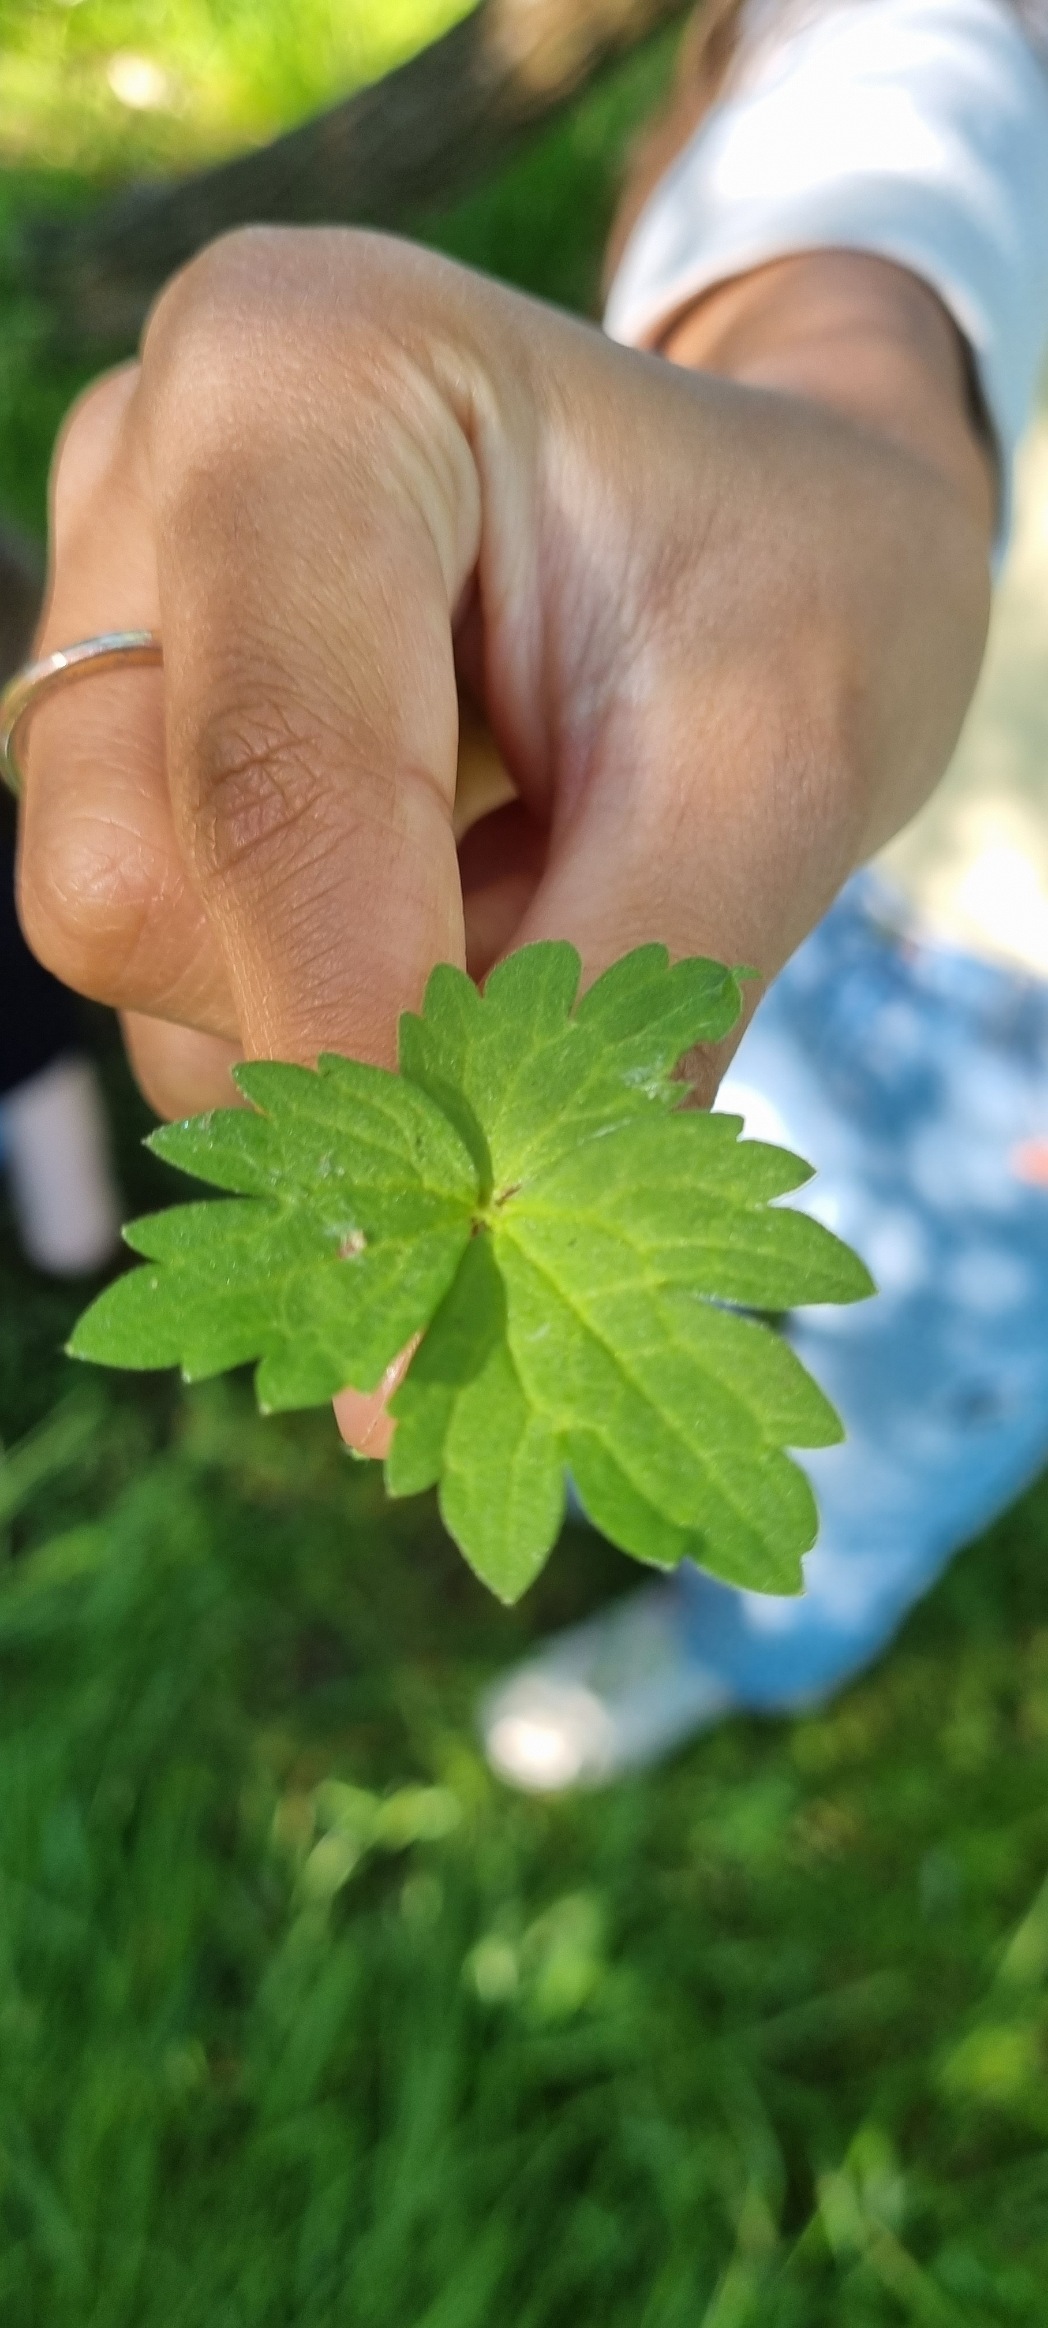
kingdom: Plantae
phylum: Tracheophyta
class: Magnoliopsida
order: Ranunculales
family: Ranunculaceae
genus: Ranunculus
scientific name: Ranunculus repens
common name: Lav ranunkel
